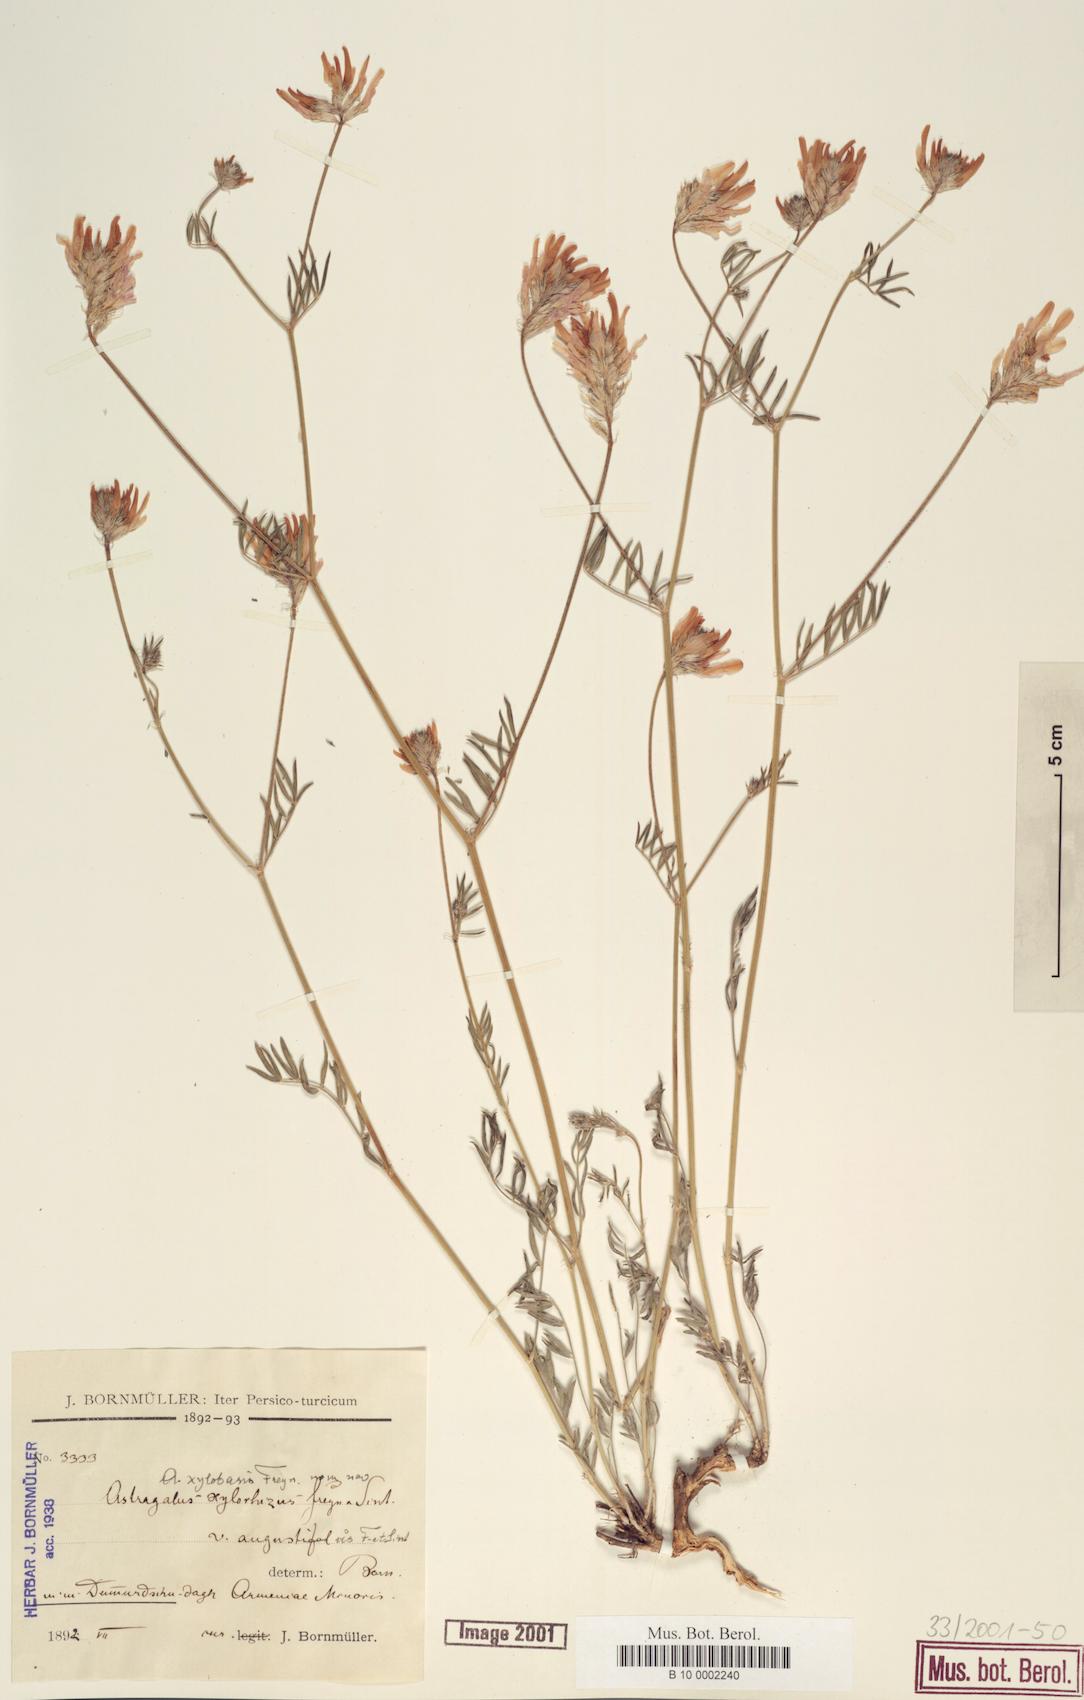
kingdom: Plantae
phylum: Tracheophyta
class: Magnoliopsida
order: Fabales
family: Fabaceae
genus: Astragalus
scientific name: Astragalus aduncus
